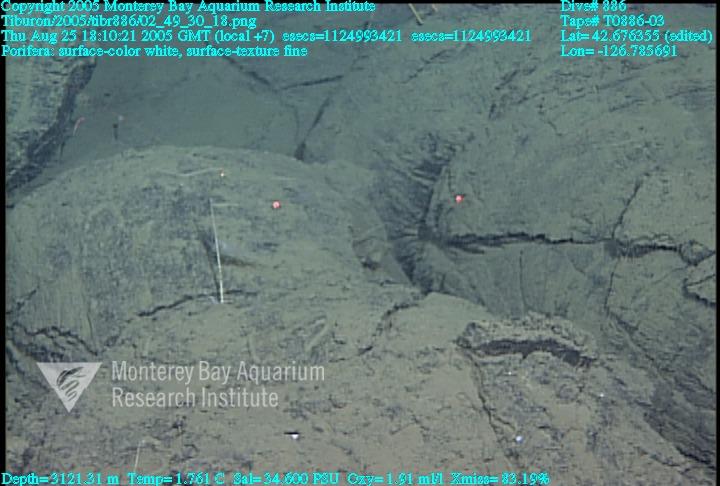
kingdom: Animalia
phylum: Porifera
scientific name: Porifera
